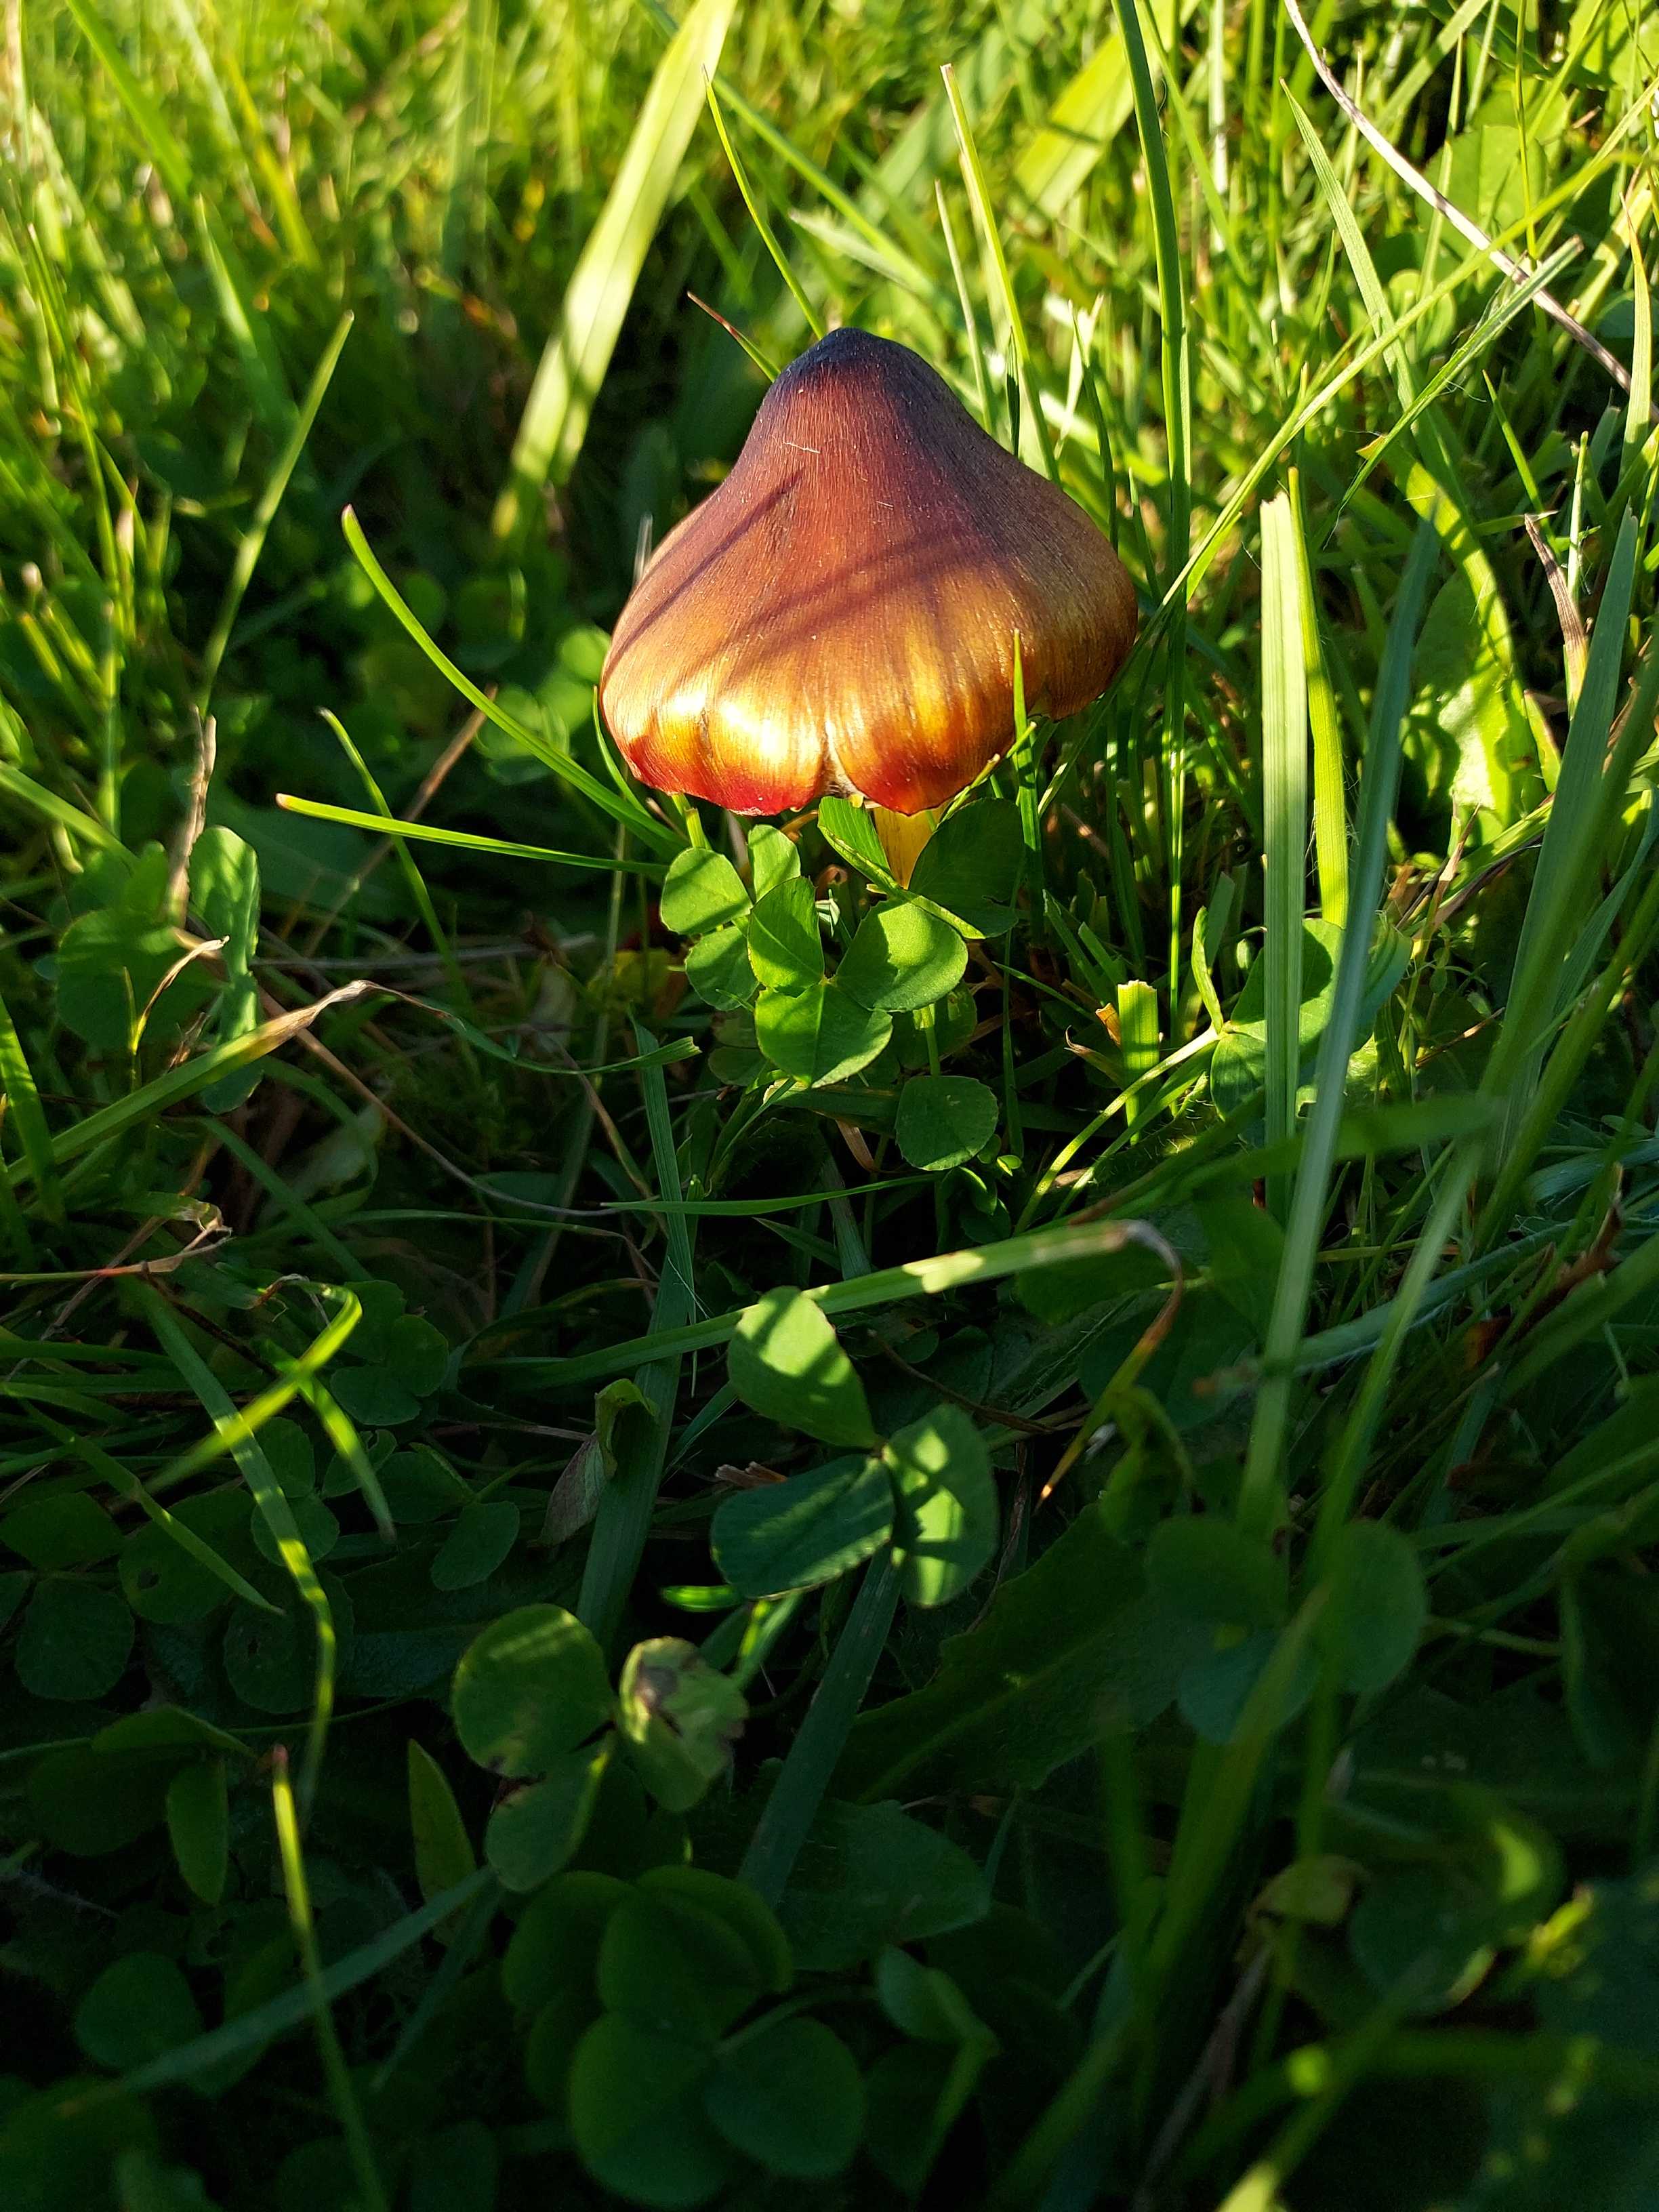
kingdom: Fungi
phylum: Basidiomycota
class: Agaricomycetes
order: Agaricales
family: Hygrophoraceae
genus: Hygrocybe
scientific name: Hygrocybe conica
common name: kegle-vokshat
